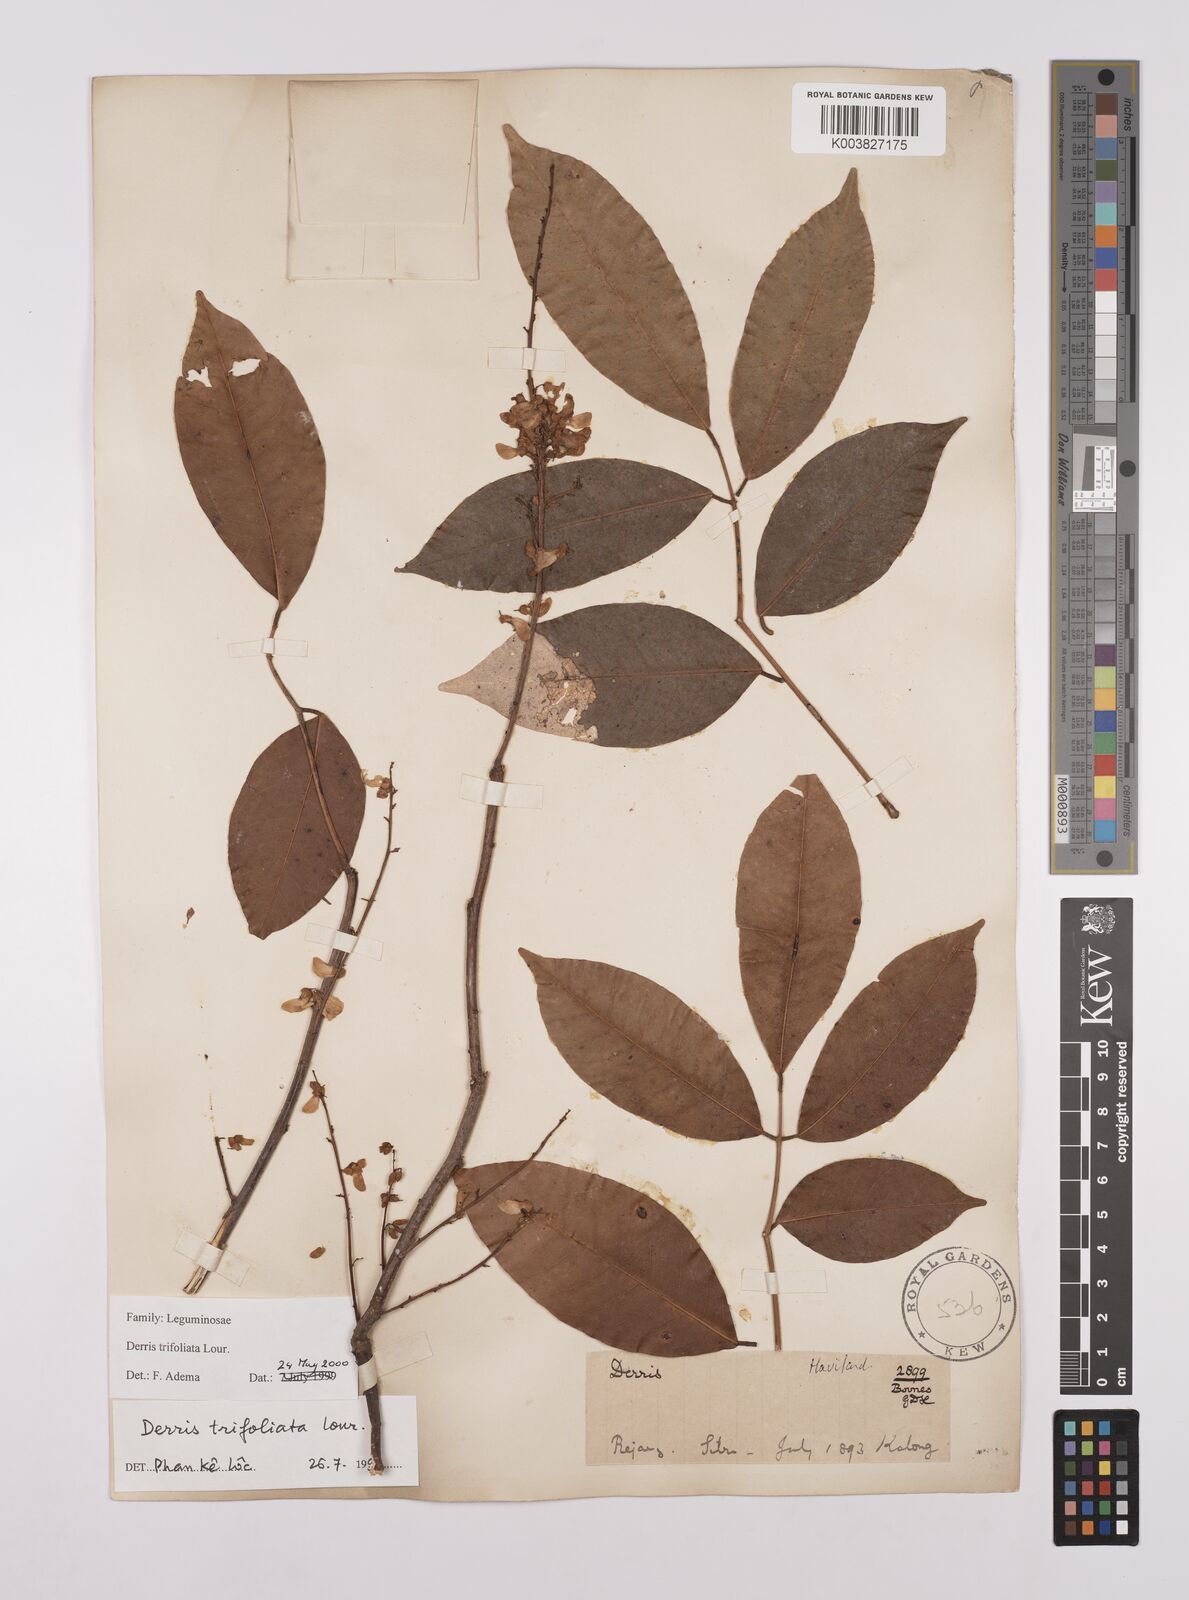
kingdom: Plantae
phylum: Tracheophyta
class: Magnoliopsida
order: Fabales
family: Fabaceae
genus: Derris
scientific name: Derris trifoliata
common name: Three-leaf derris
